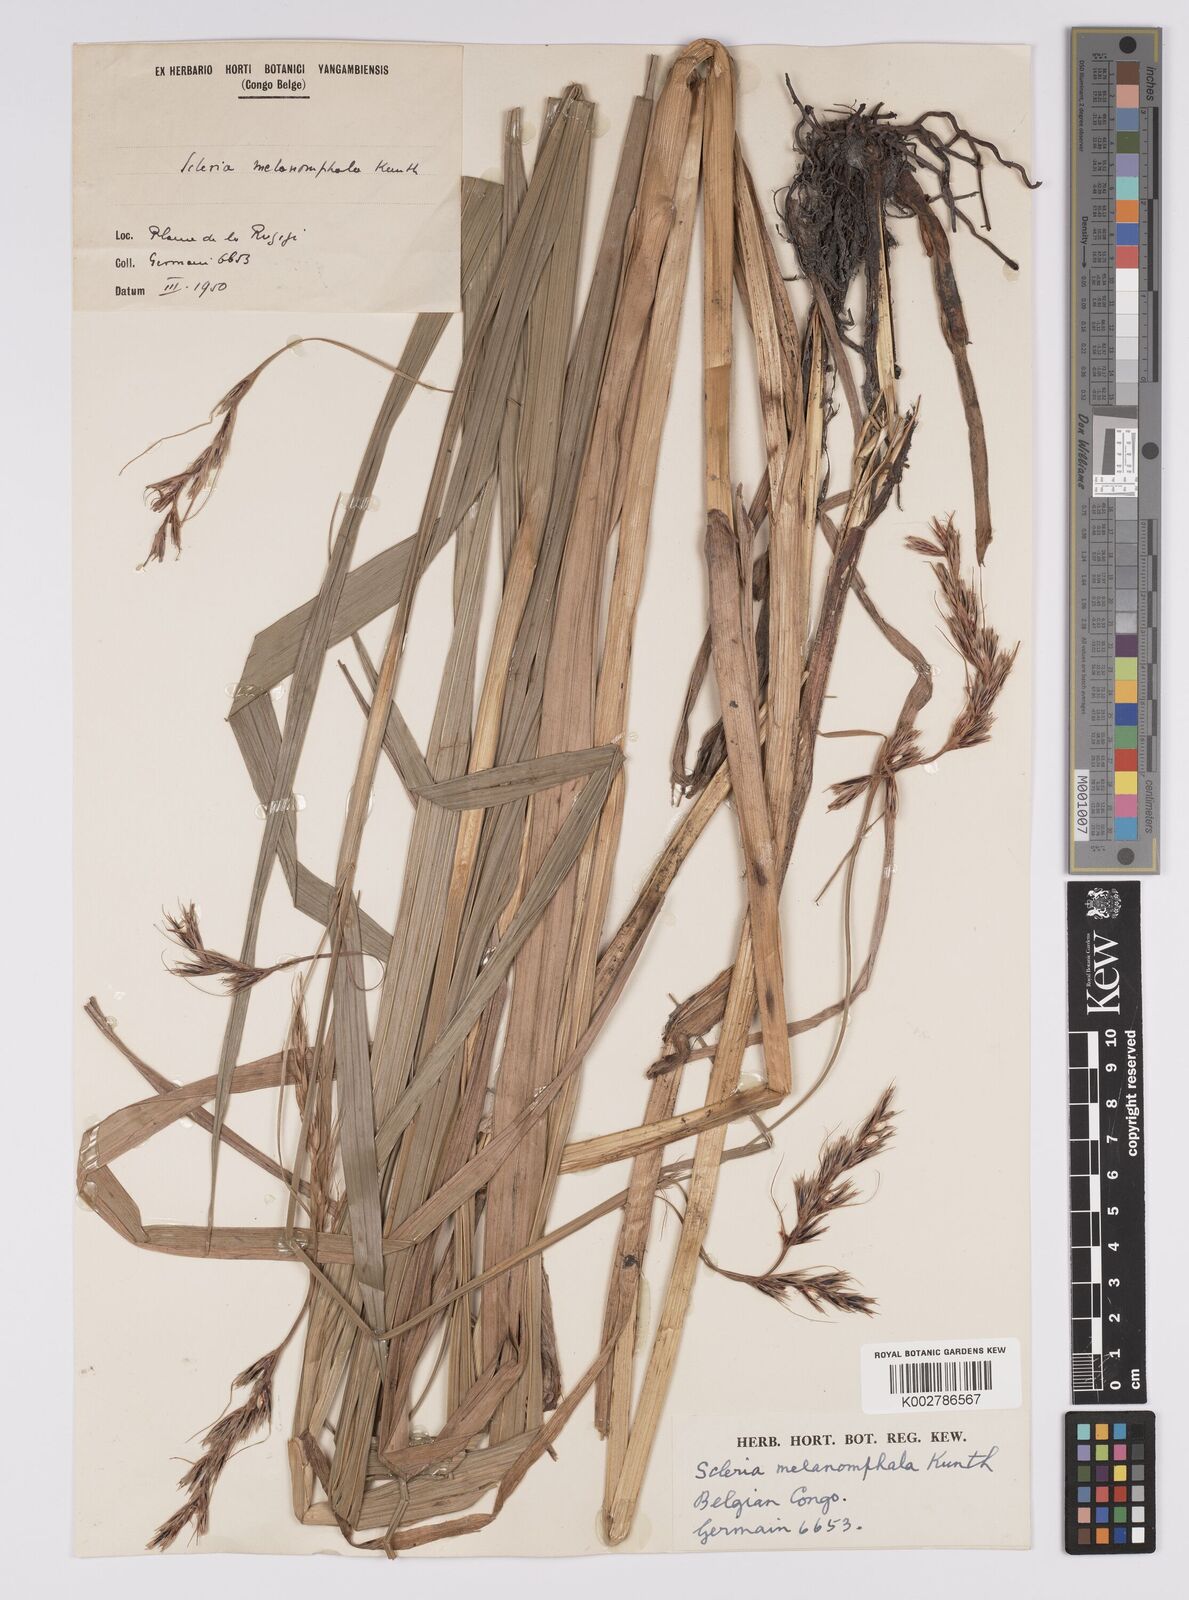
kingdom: Plantae
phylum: Tracheophyta
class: Liliopsida
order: Poales
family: Cyperaceae
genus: Scleria
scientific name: Scleria melanomphala
